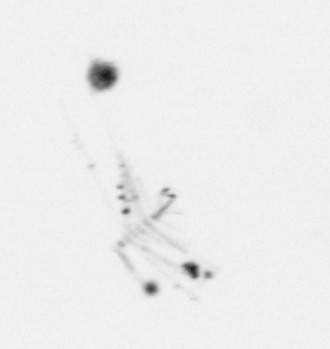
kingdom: Chromista
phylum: Ochrophyta
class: Bacillariophyceae
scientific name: Bacillariophyceae
